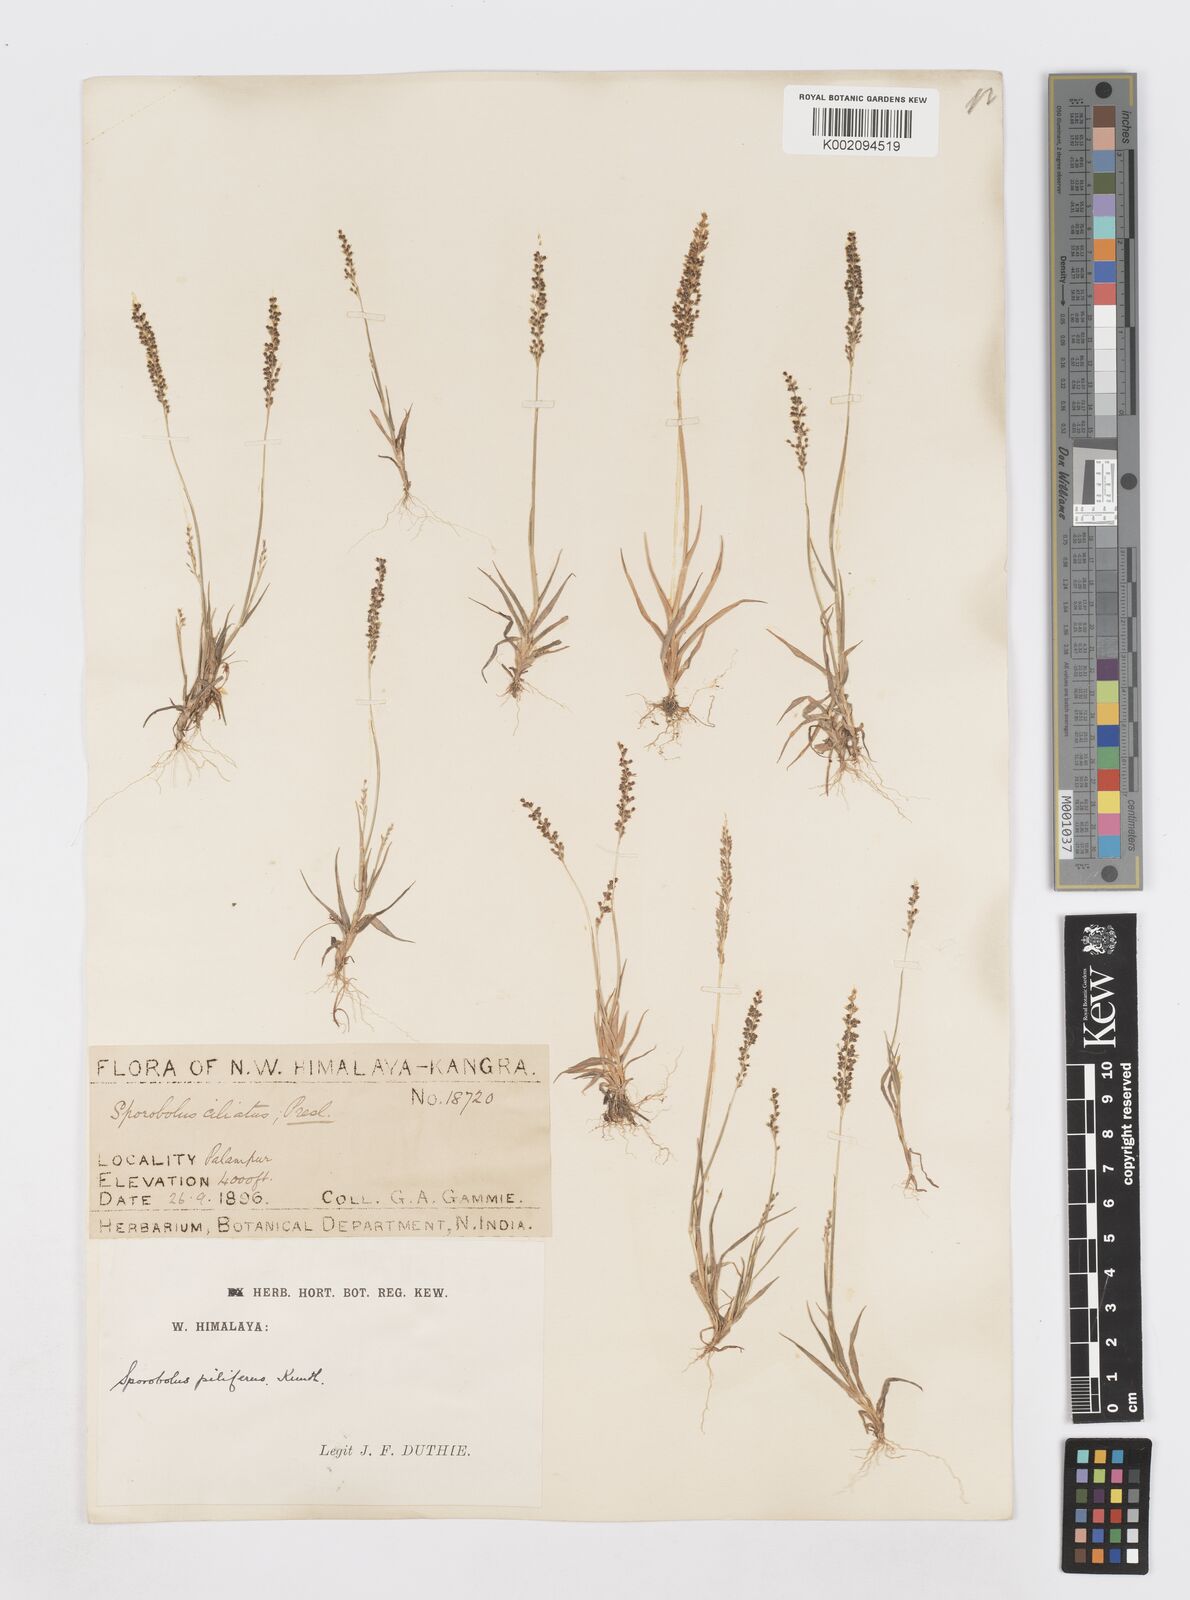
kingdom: Plantae
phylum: Tracheophyta
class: Liliopsida
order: Poales
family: Poaceae
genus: Sporobolus
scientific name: Sporobolus pilifer
